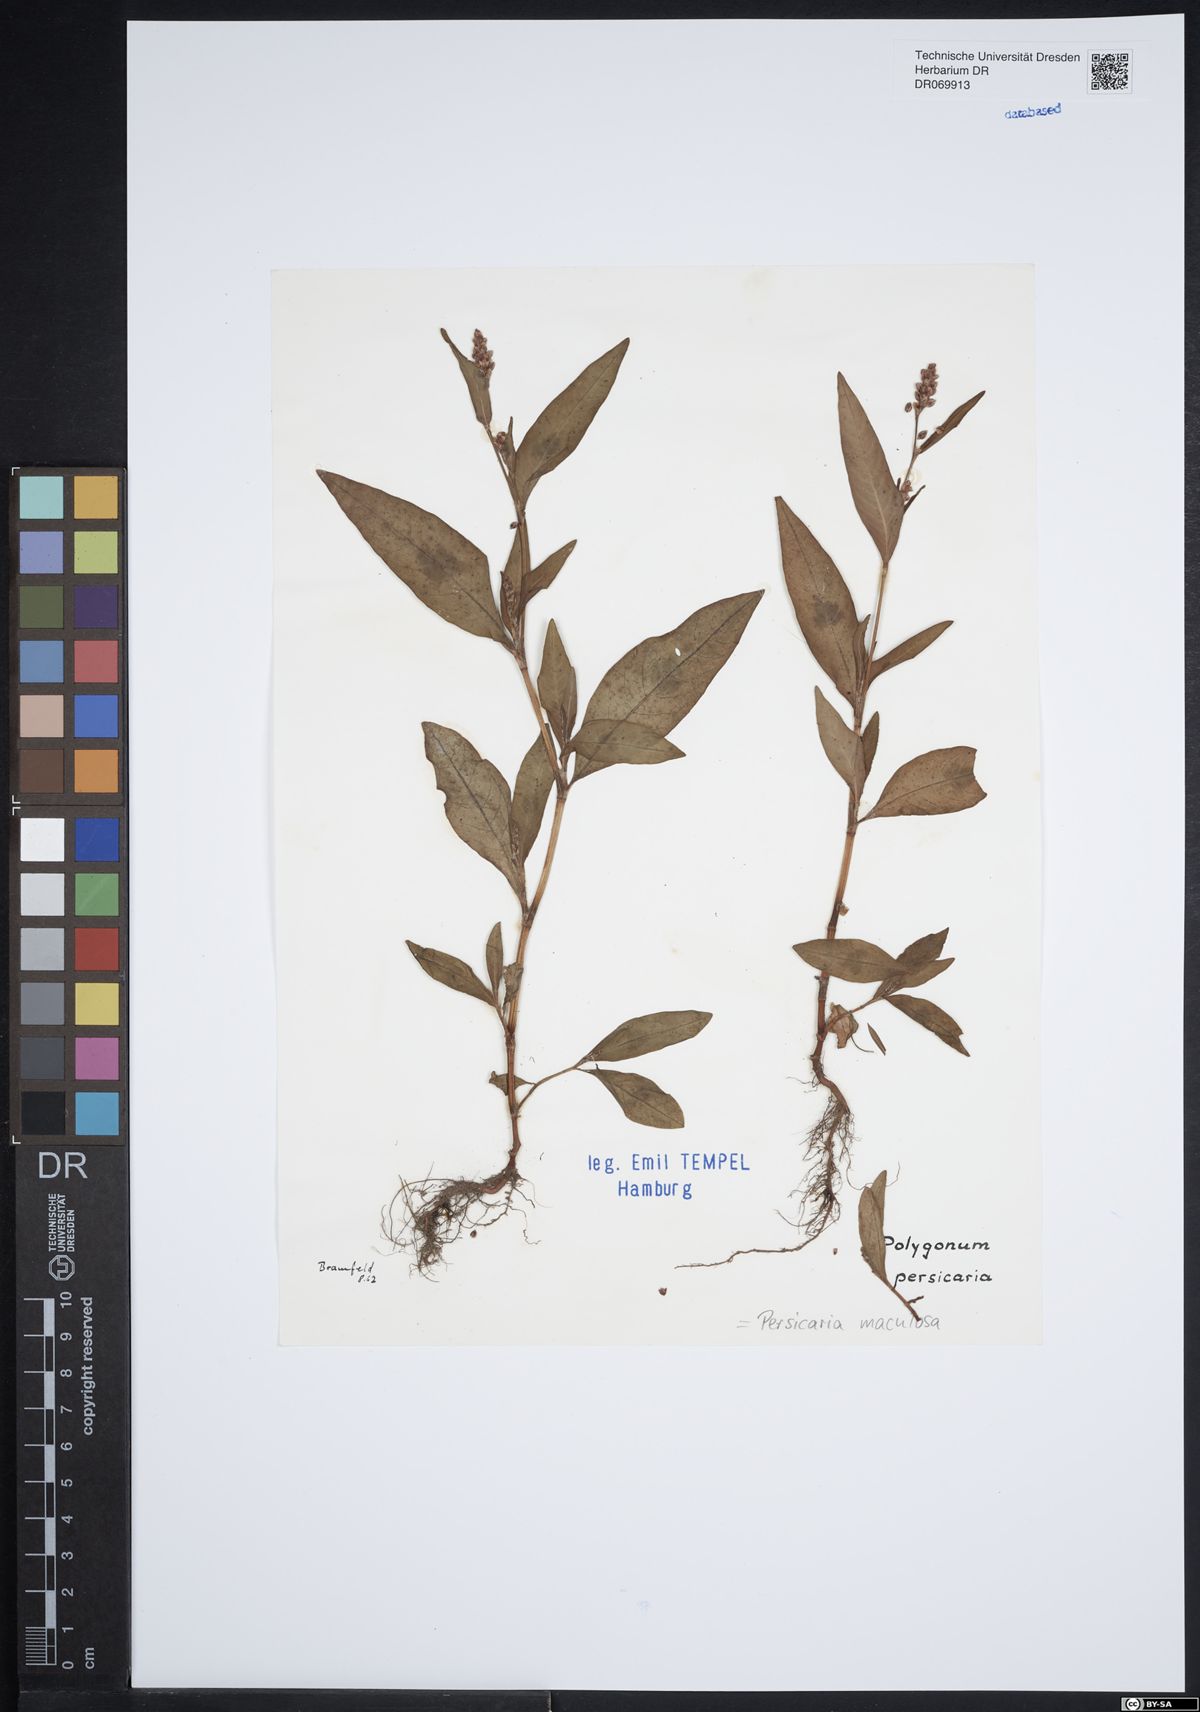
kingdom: Plantae
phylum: Tracheophyta
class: Magnoliopsida
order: Caryophyllales
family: Polygonaceae
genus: Persicaria
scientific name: Persicaria maculosa
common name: Redshank
